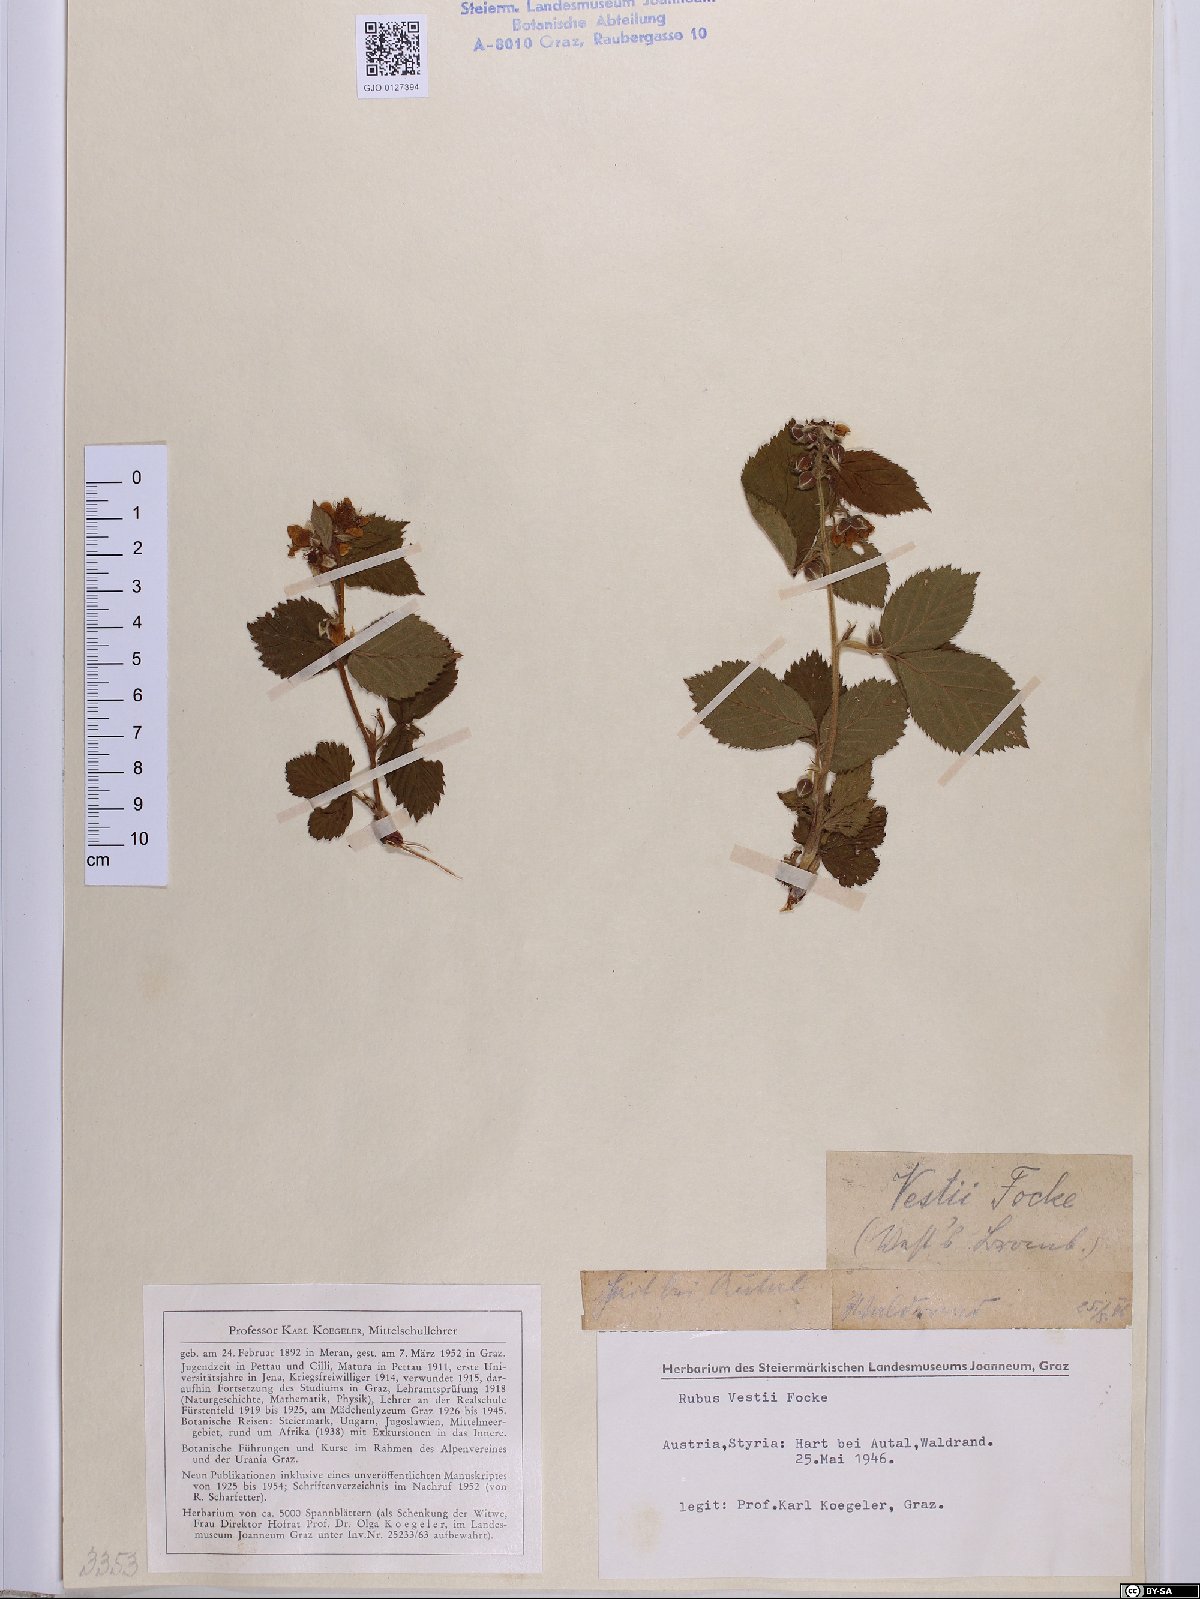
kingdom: Plantae
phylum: Tracheophyta
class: Magnoliopsida
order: Rosales
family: Rosaceae
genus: Rubus
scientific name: Rubus constrictus
